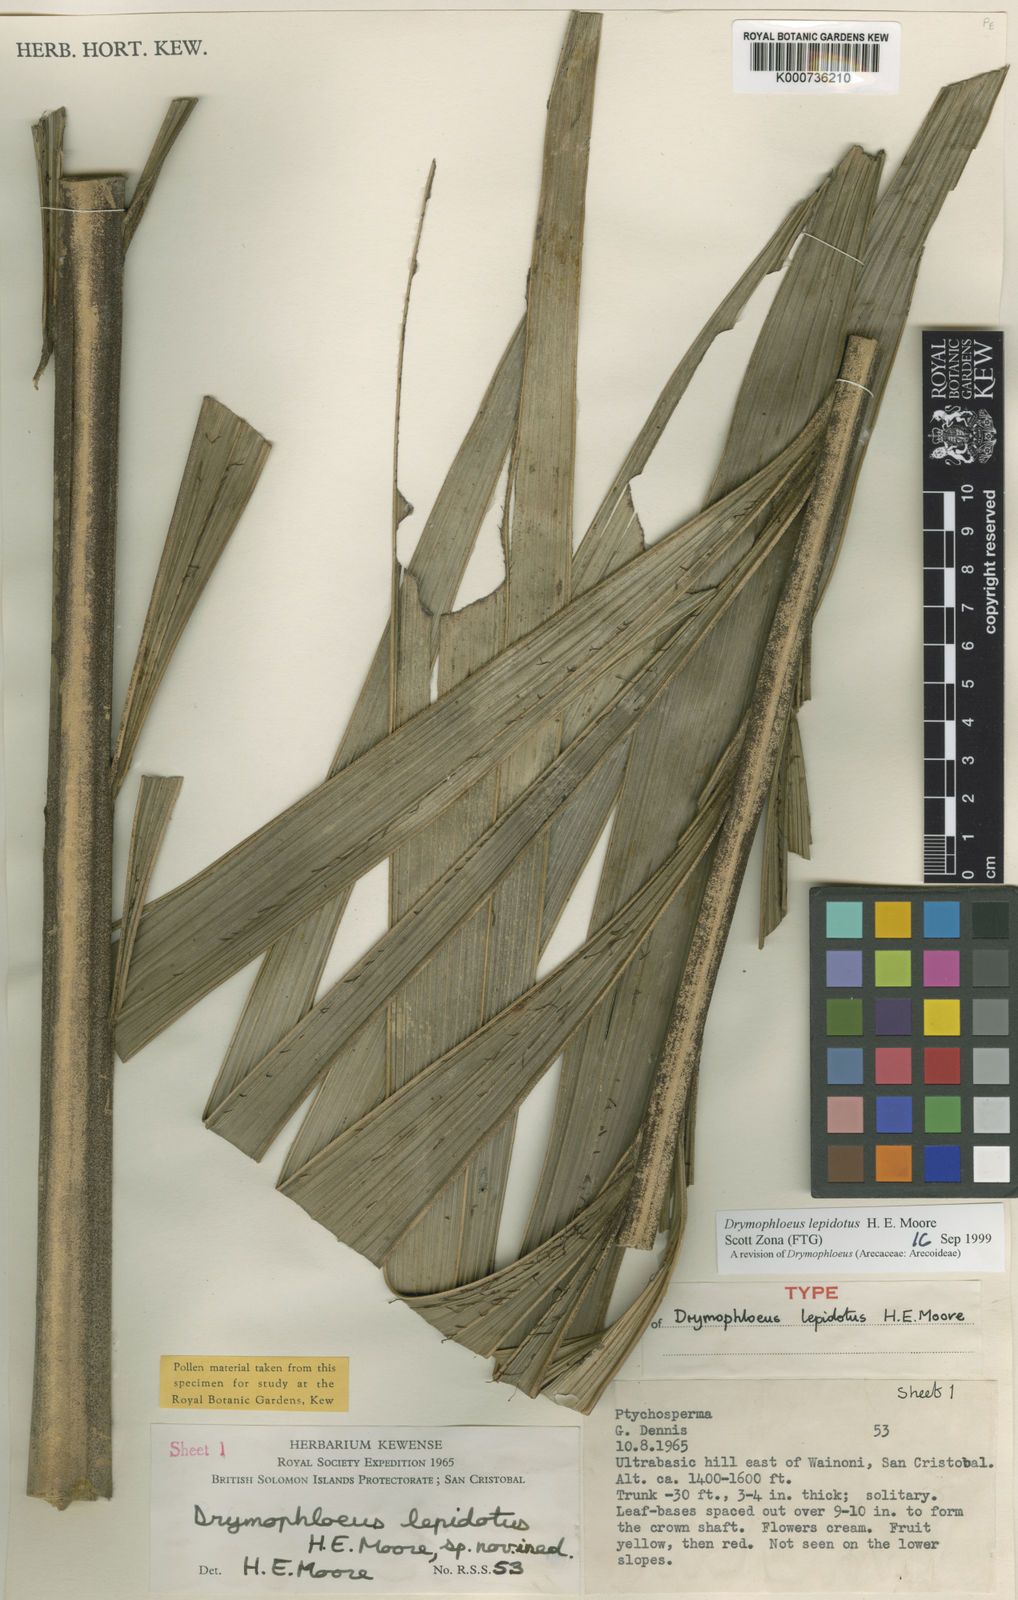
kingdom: Plantae
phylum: Tracheophyta
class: Liliopsida
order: Arecales
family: Arecaceae
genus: Veitchia
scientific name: Veitchia lepidota
